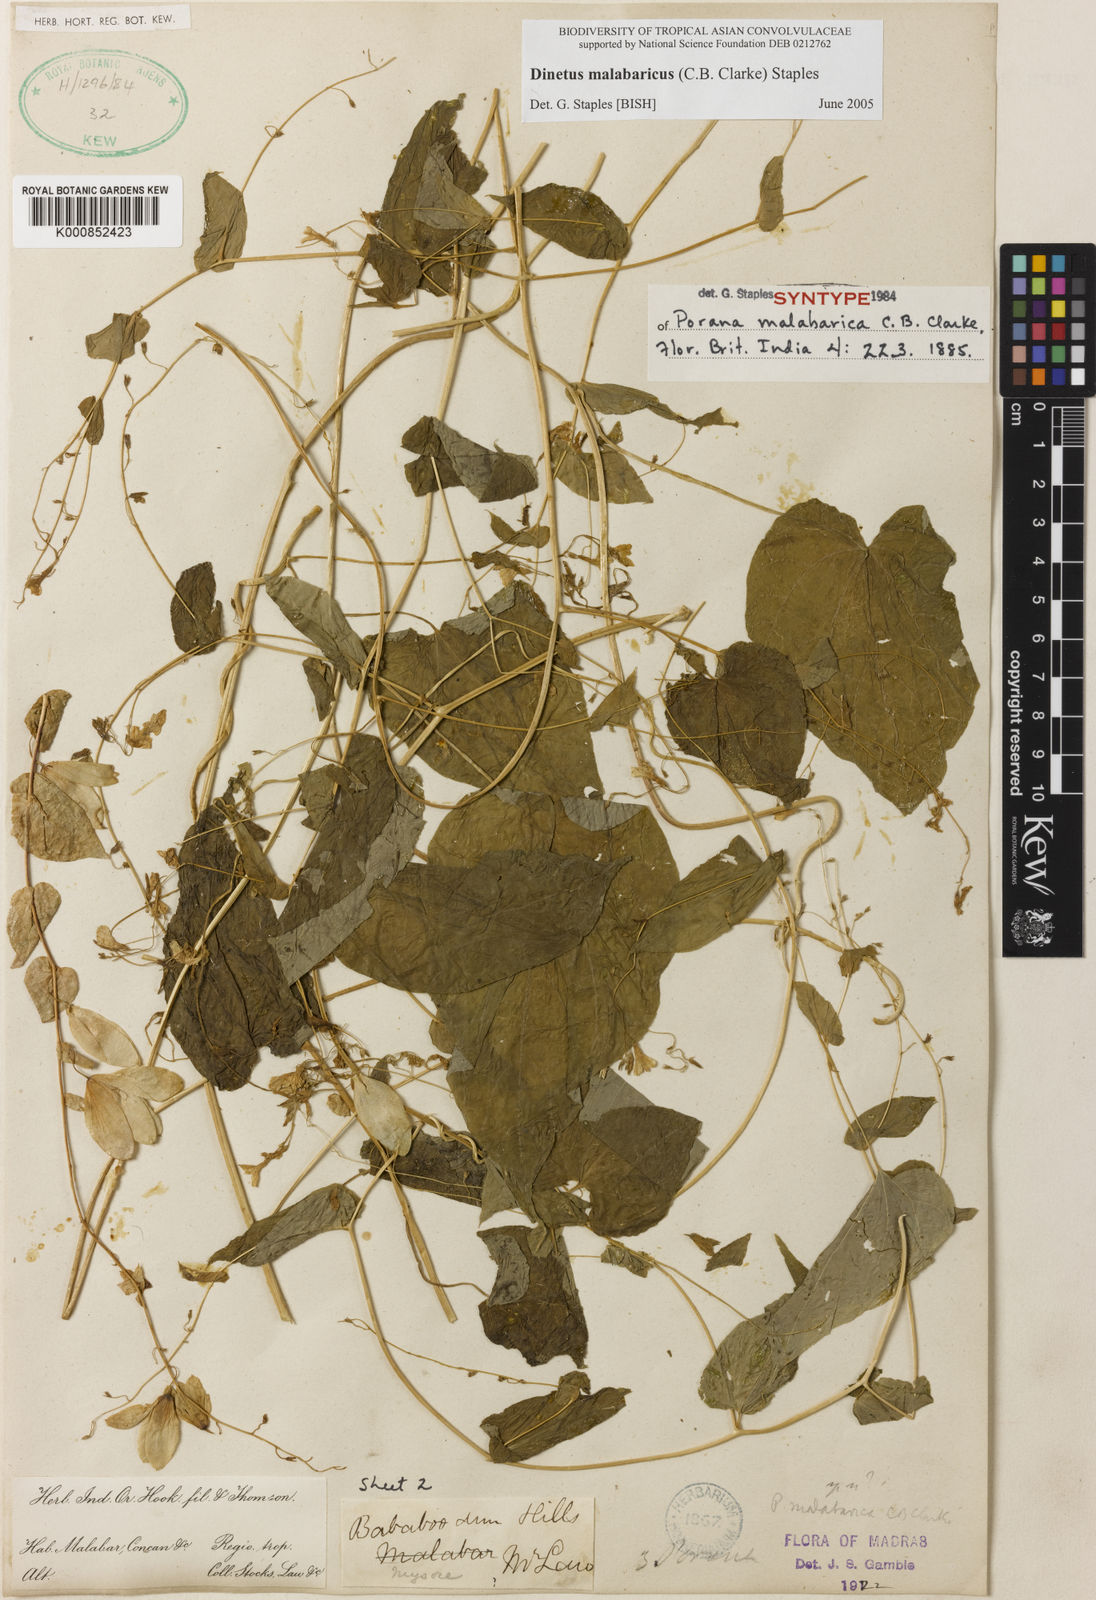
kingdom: Plantae
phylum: Tracheophyta
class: Magnoliopsida
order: Solanales
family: Convolvulaceae
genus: Dinetus
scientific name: Dinetus malabaricus
